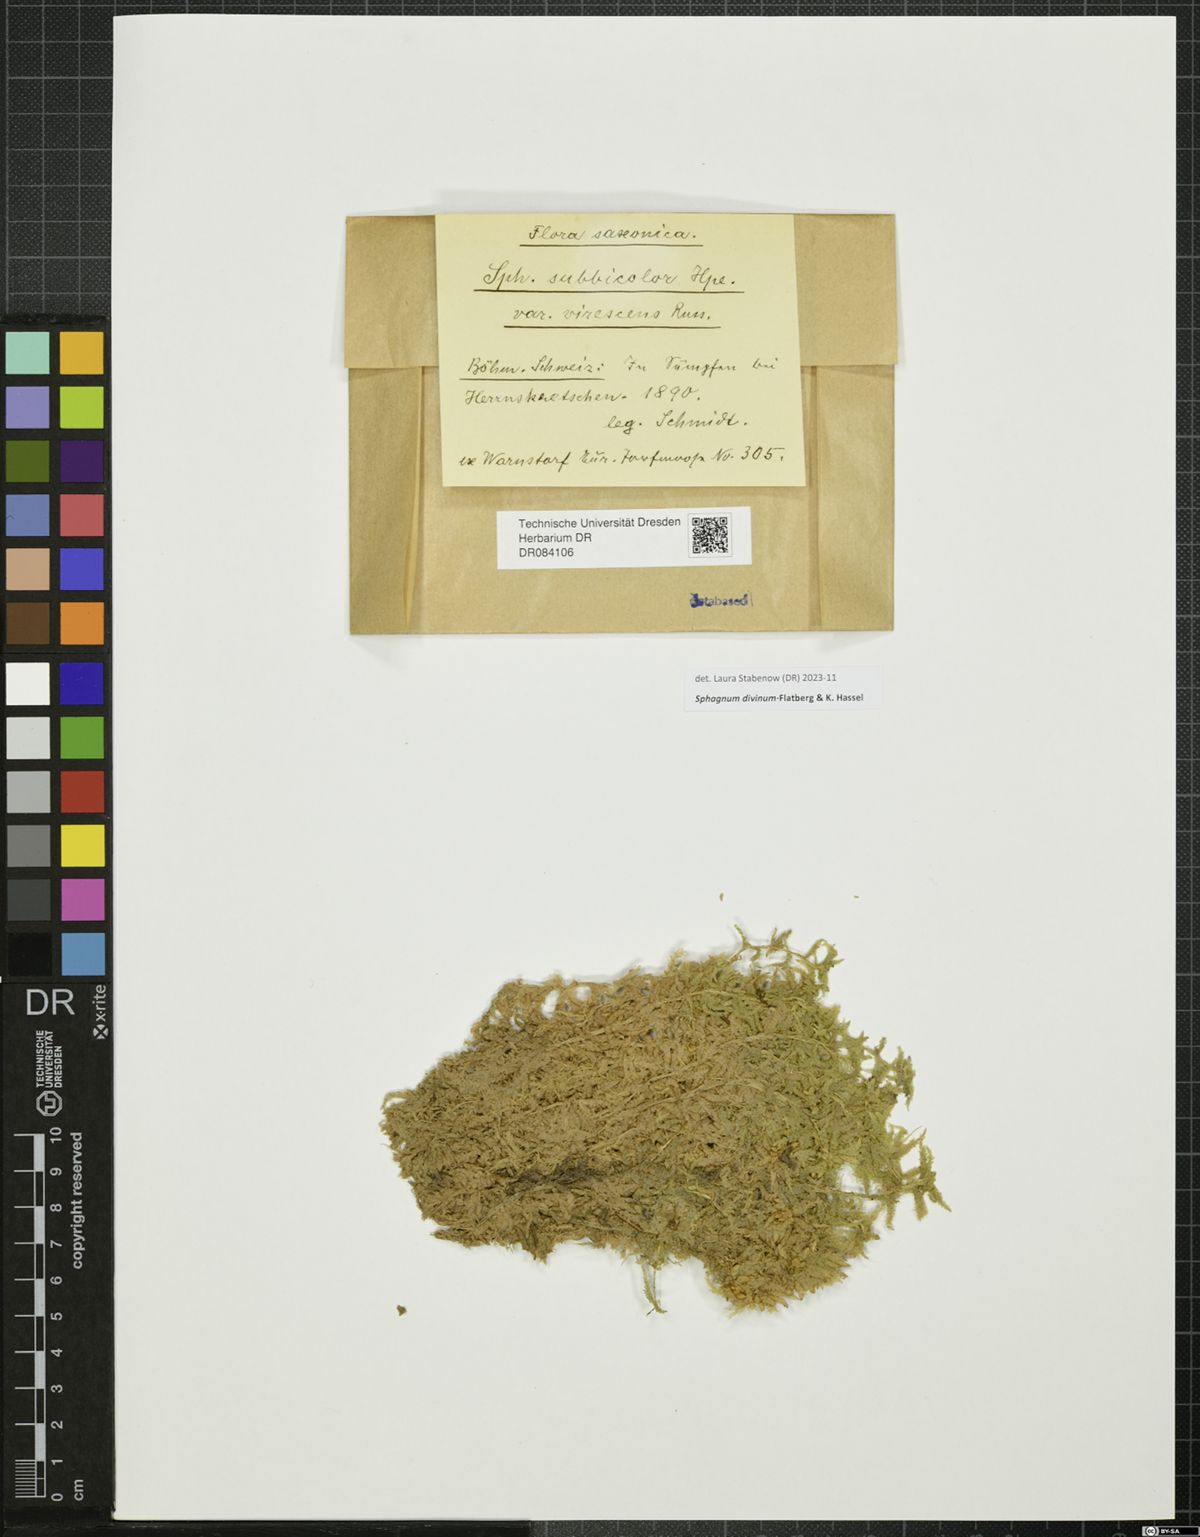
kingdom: Plantae
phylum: Bryophyta
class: Sphagnopsida
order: Sphagnales
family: Sphagnaceae
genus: Sphagnum
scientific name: Sphagnum divinum
